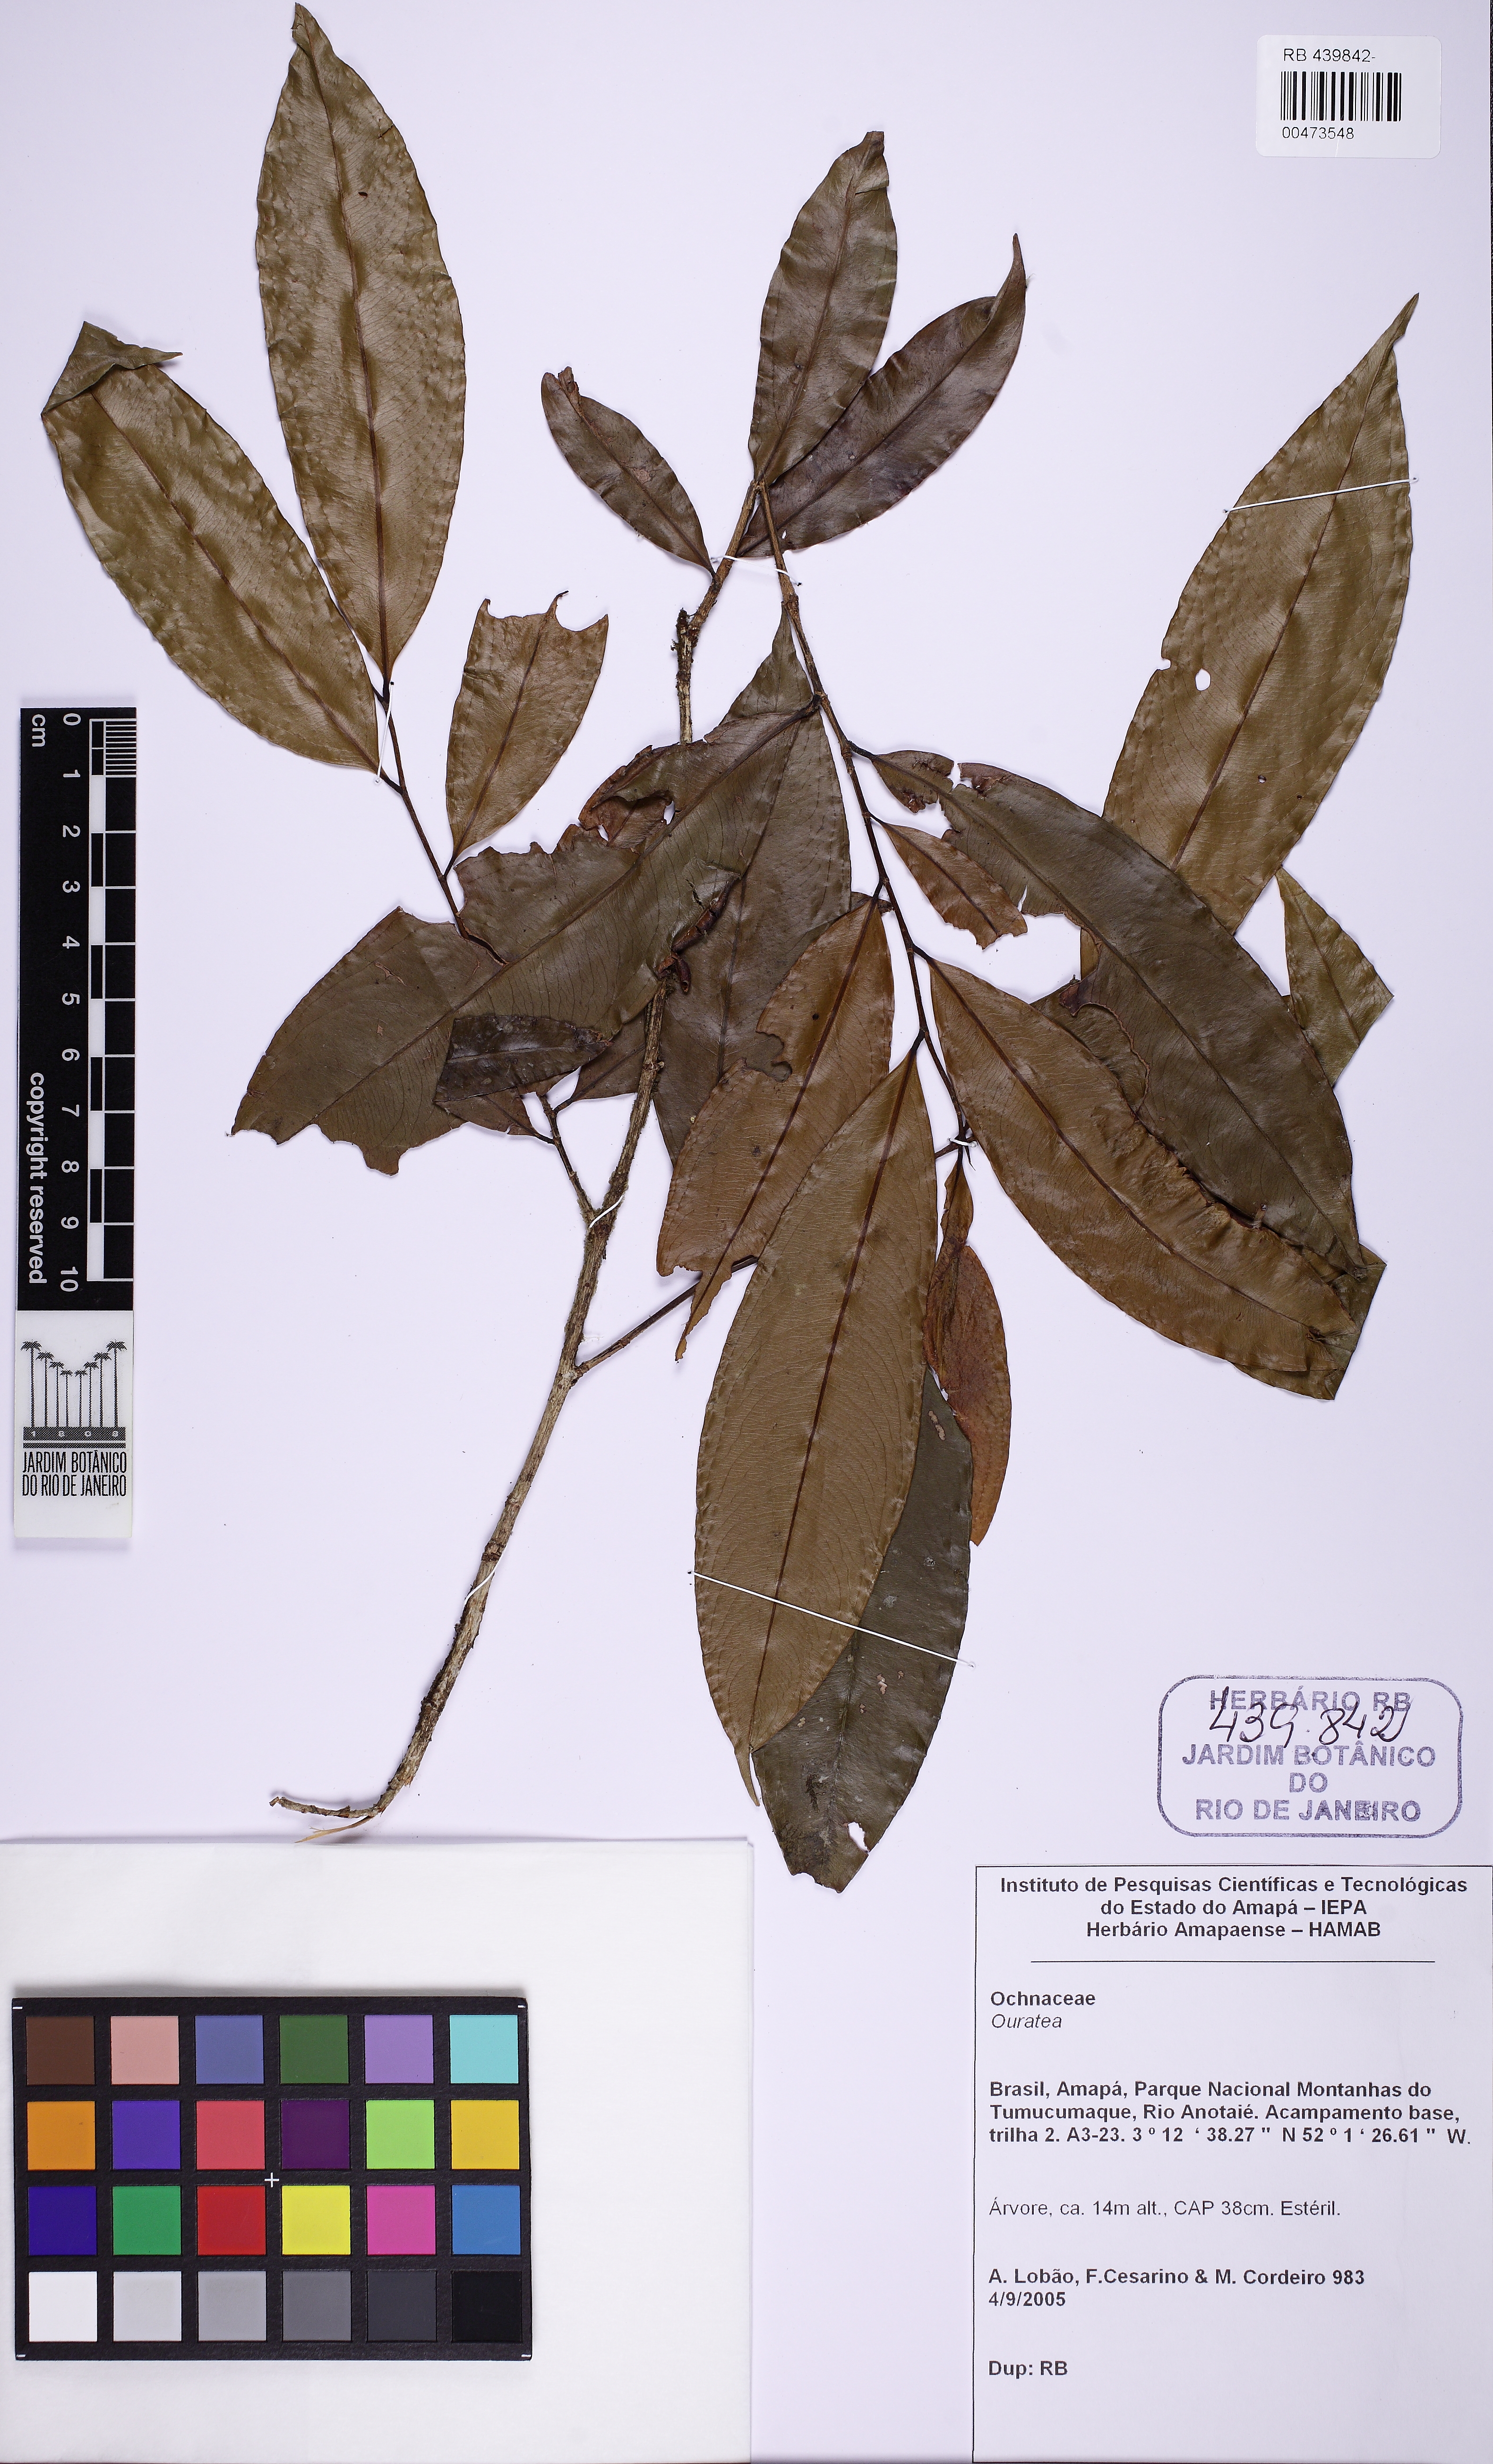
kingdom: Plantae
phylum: Tracheophyta
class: Magnoliopsida
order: Malpighiales
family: Ochnaceae
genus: Ouratea
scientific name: Ouratea
